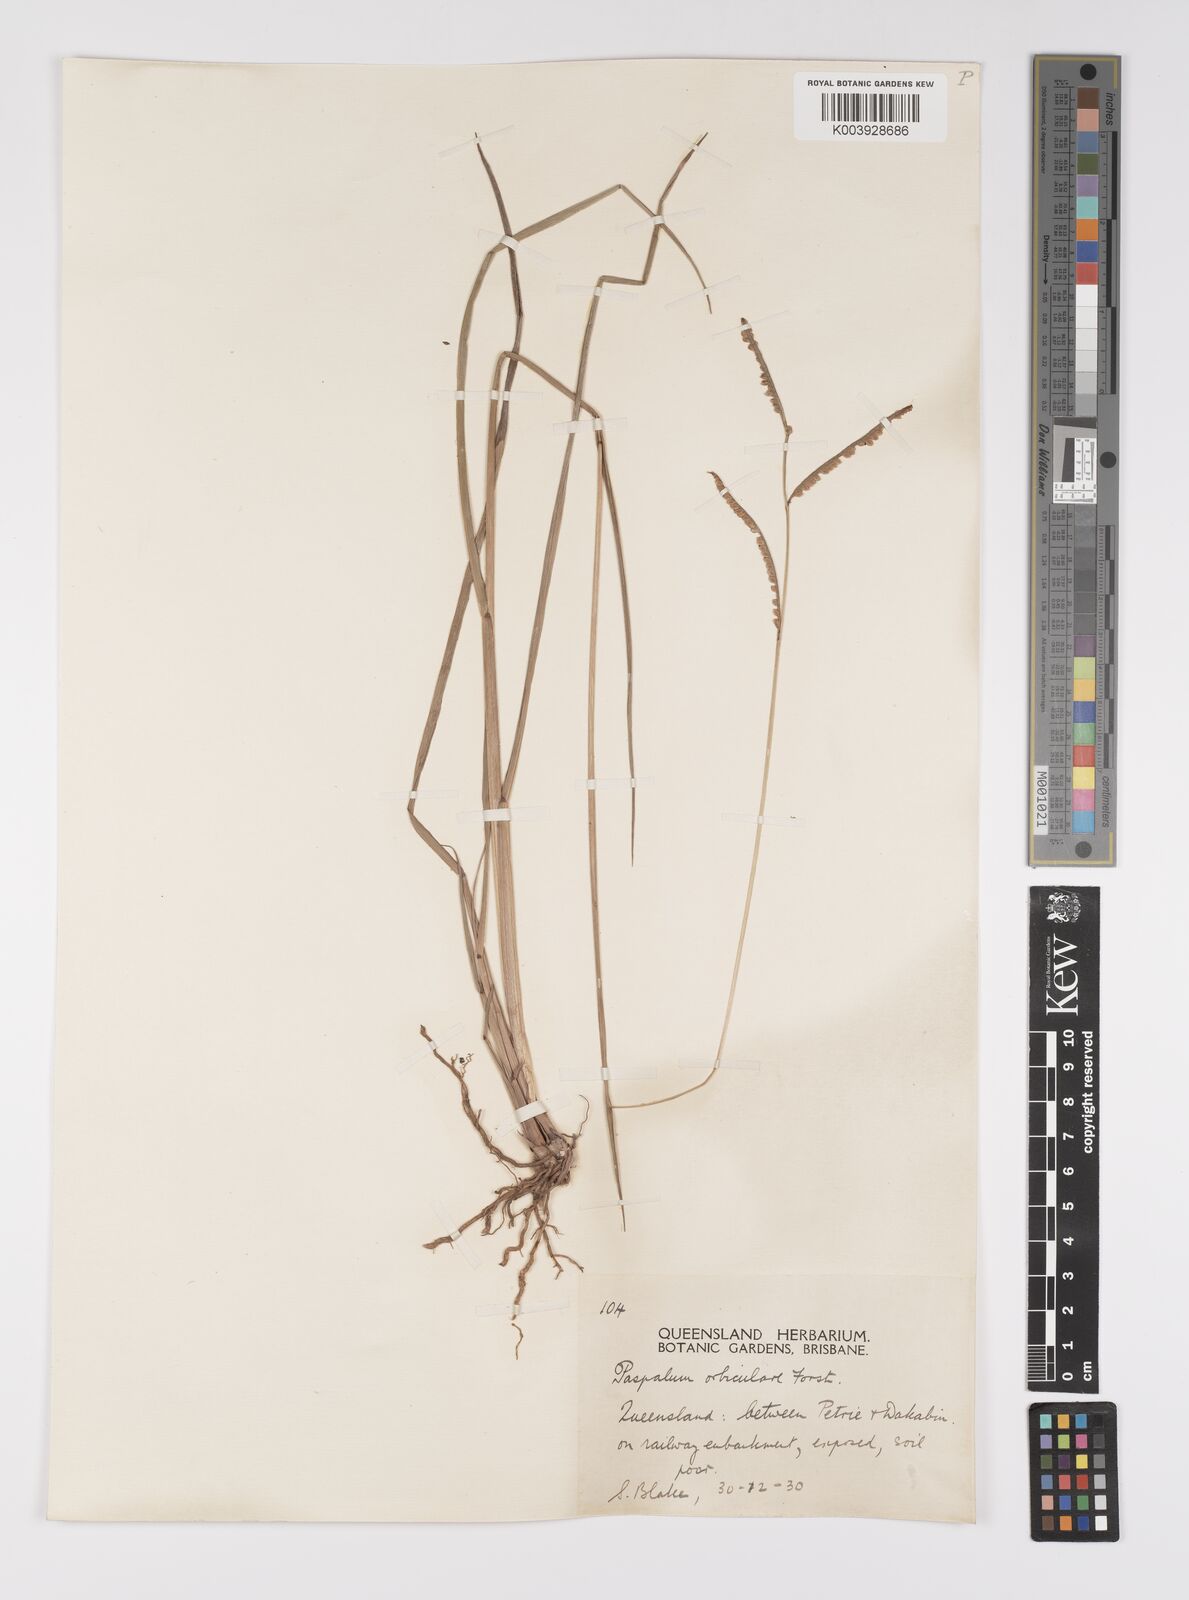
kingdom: Plantae
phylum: Tracheophyta
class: Liliopsida
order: Poales
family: Poaceae
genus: Paspalum
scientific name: Paspalum scrobiculatum
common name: Kodo millet
